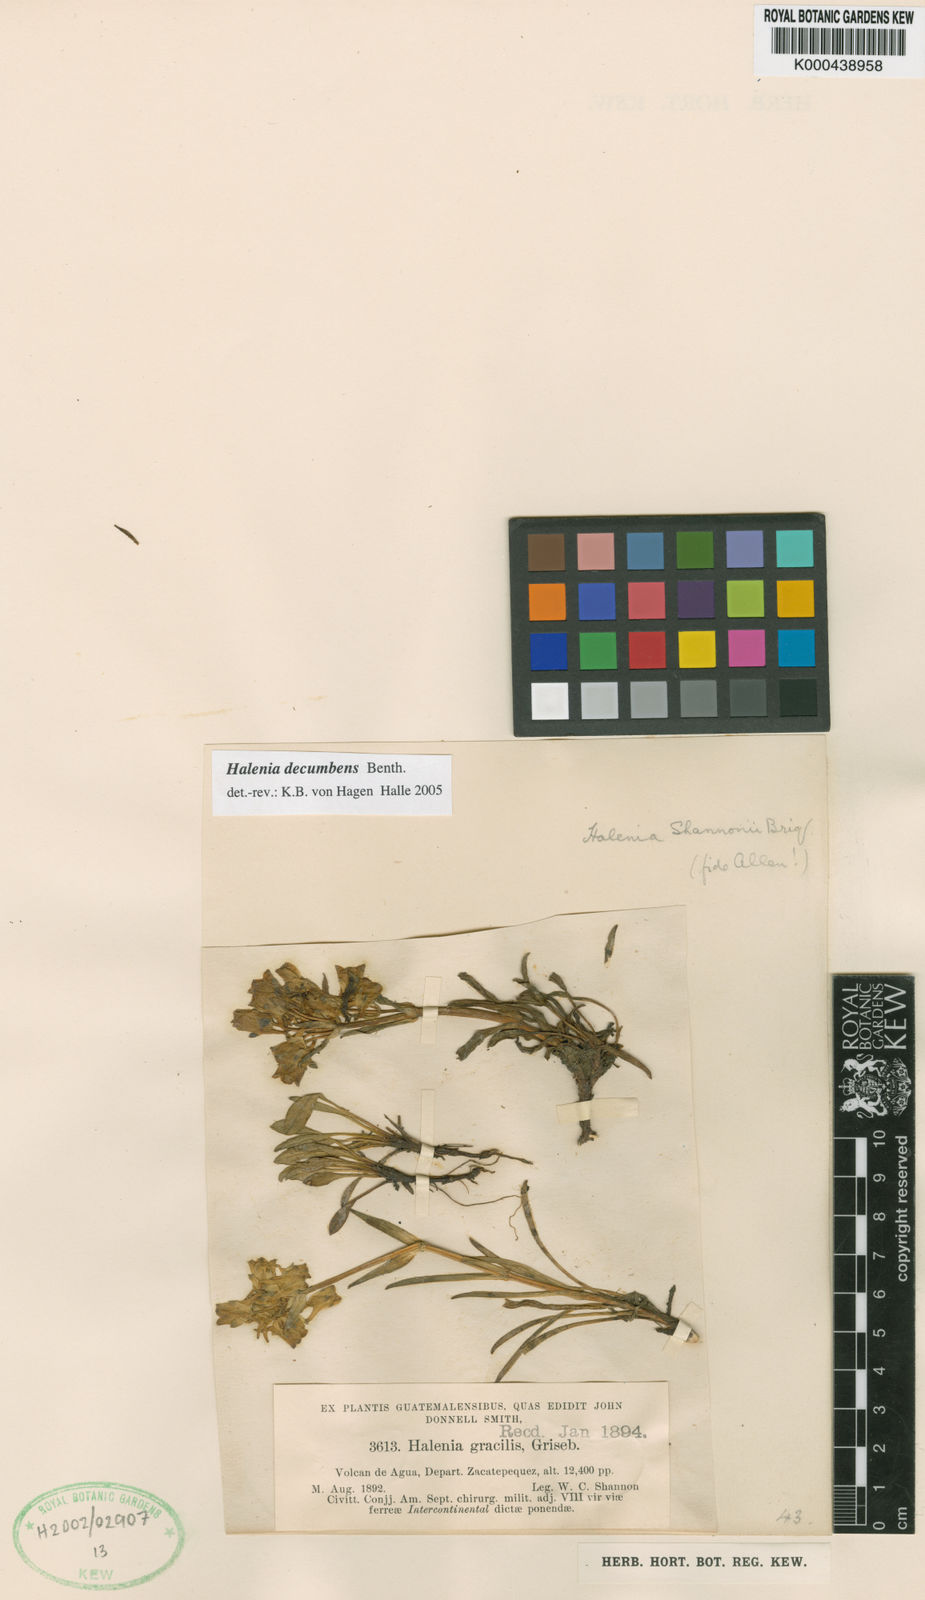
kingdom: Plantae
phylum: Tracheophyta
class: Magnoliopsida
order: Gentianales
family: Gentianaceae
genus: Halenia
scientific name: Halenia decumbens
